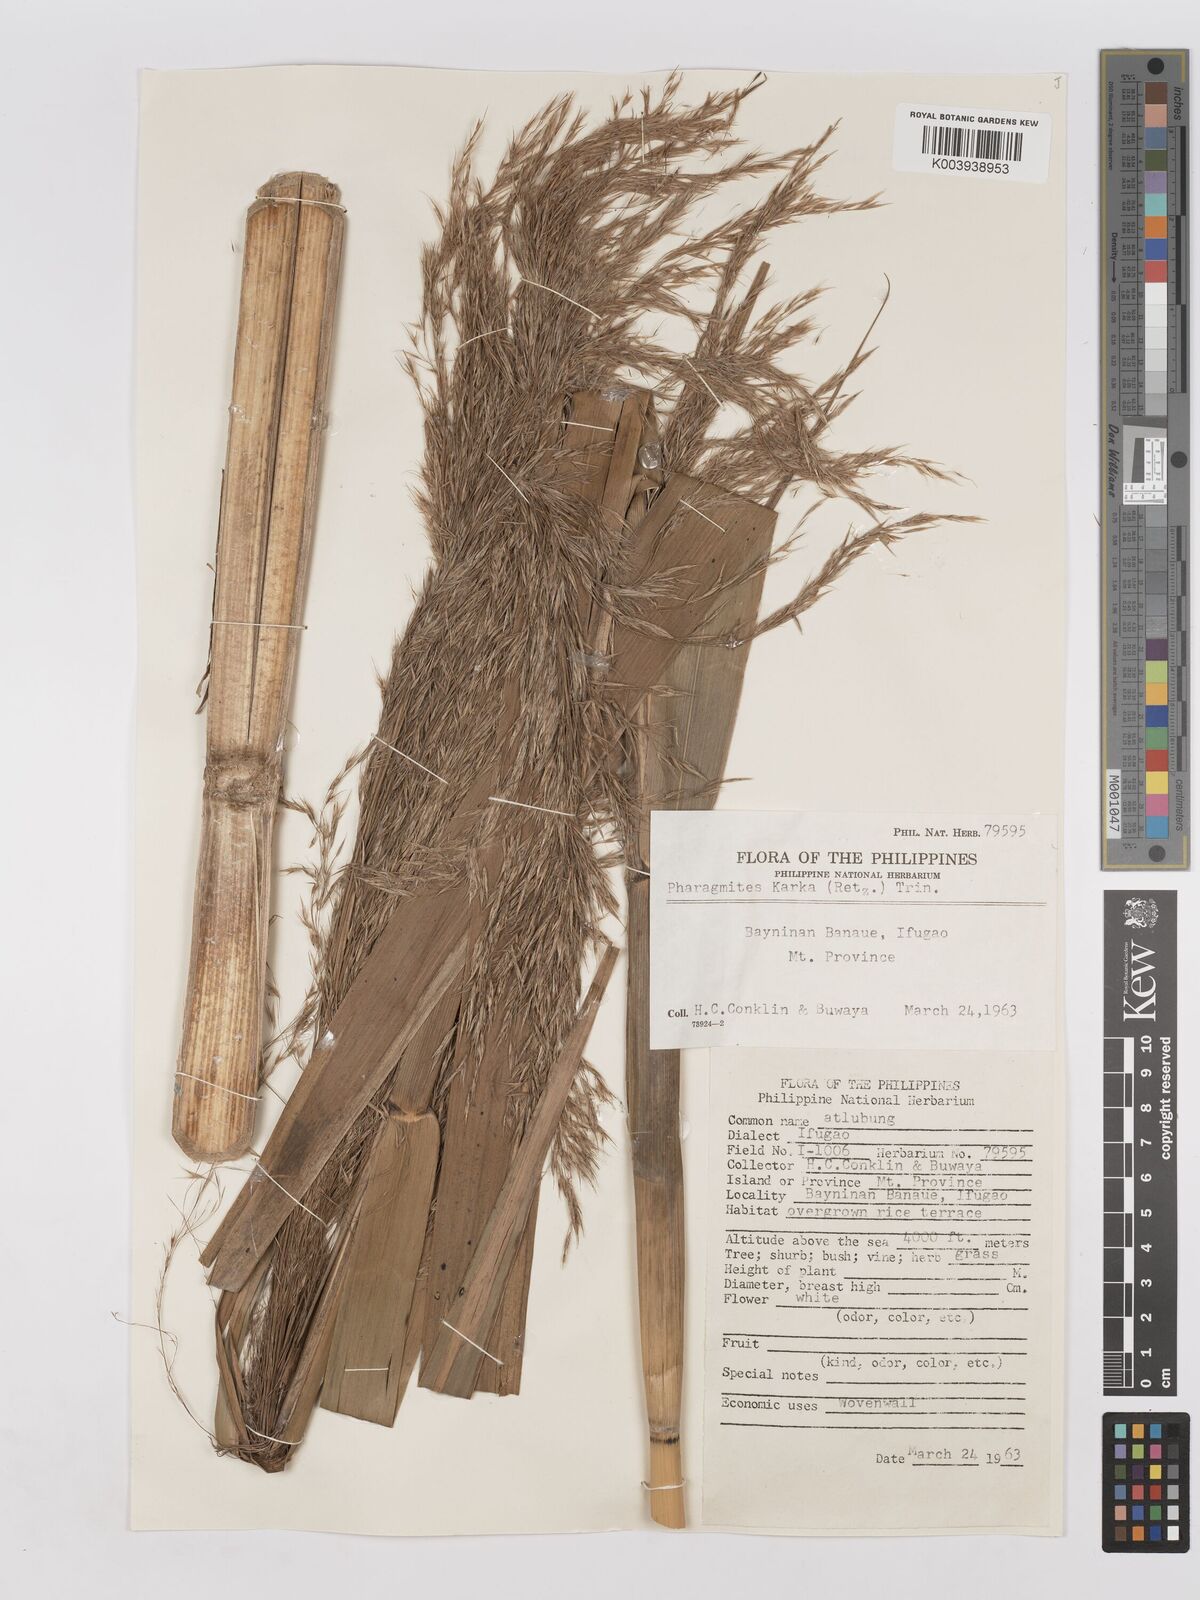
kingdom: Plantae
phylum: Tracheophyta
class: Liliopsida
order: Poales
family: Poaceae
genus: Phragmites
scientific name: Phragmites karka
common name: Tropical reed
